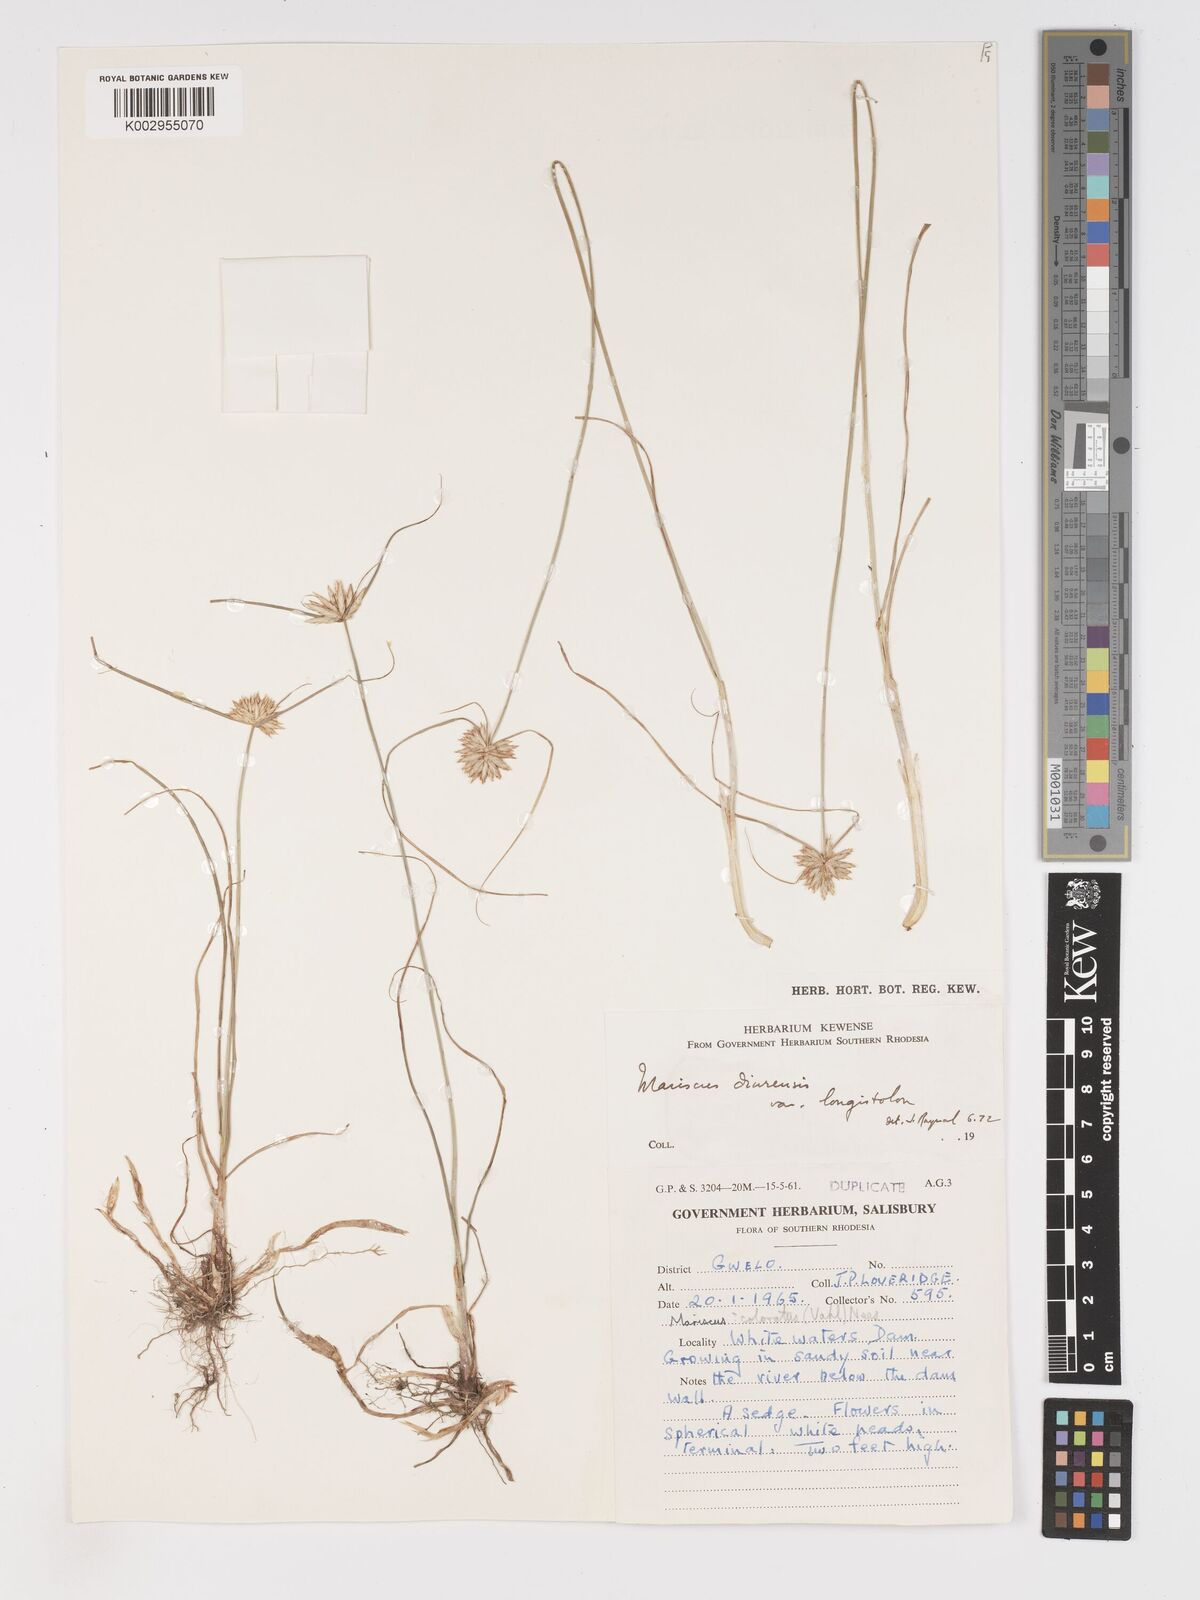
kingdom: Plantae
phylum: Tracheophyta
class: Liliopsida
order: Poales
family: Cyperaceae
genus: Cyperus
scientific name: Cyperus diurensis
